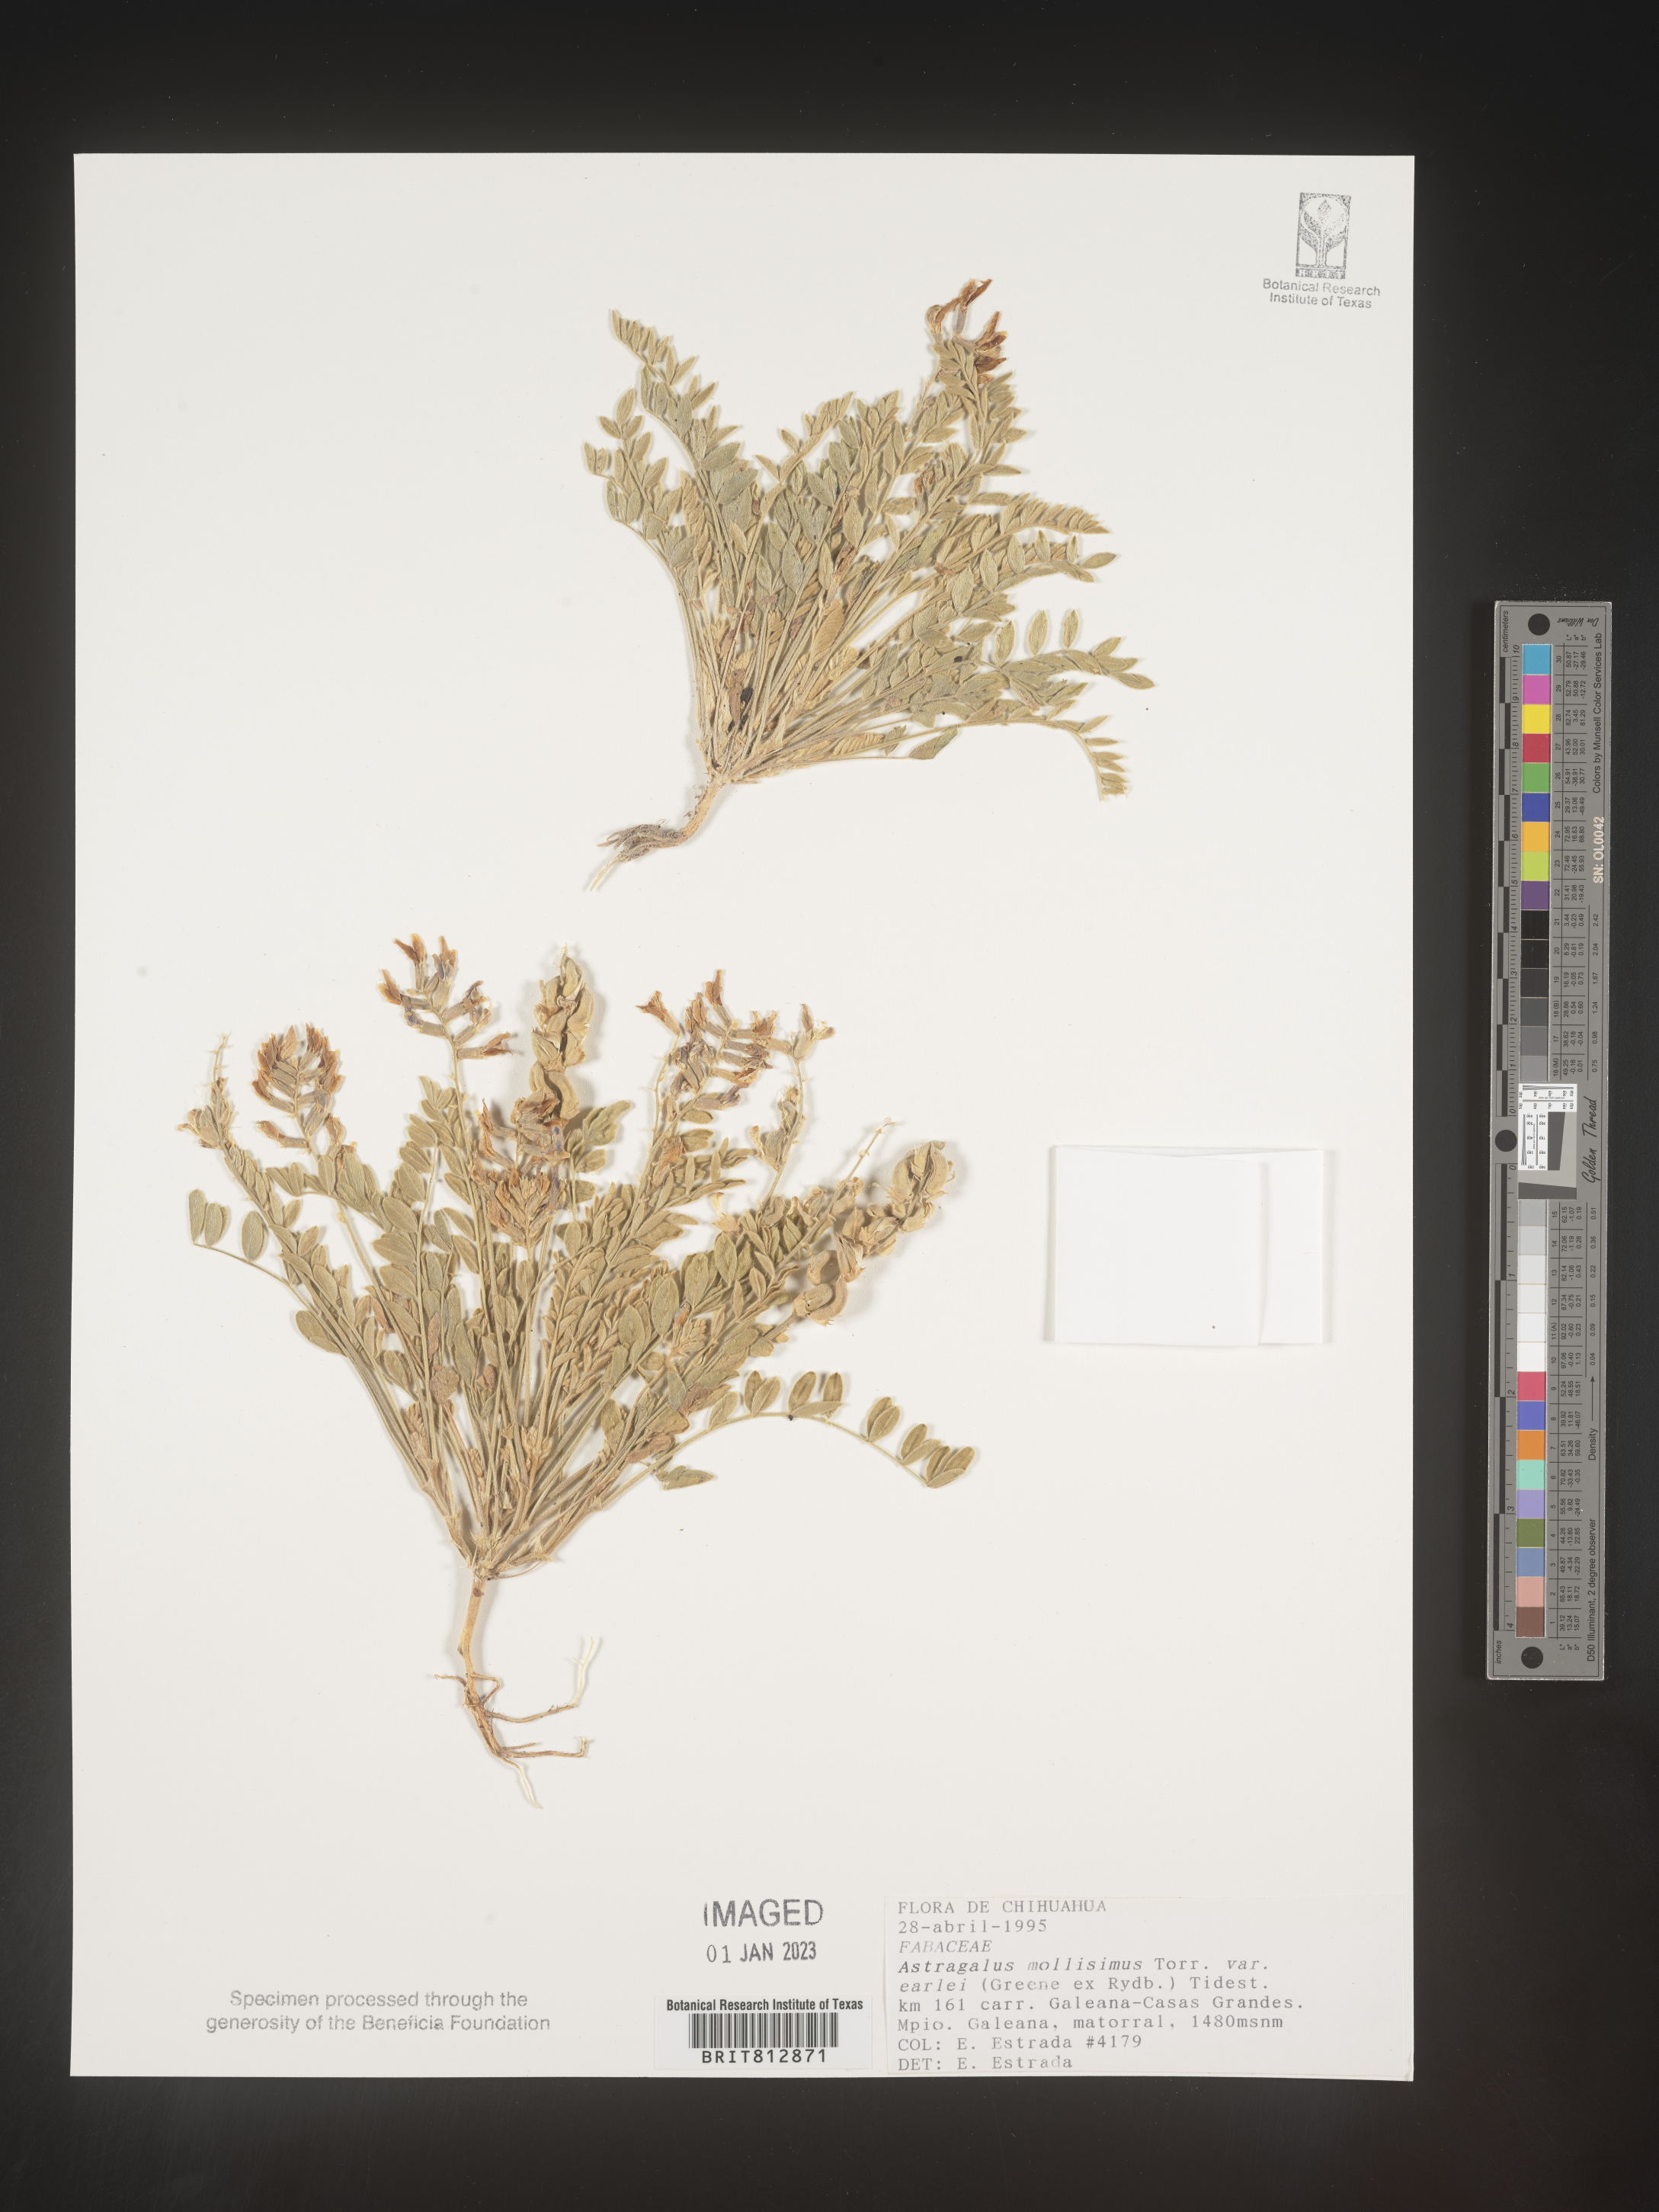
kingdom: Plantae
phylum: Tracheophyta
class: Magnoliopsida
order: Fabales
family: Fabaceae
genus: Astragalus
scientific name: Astragalus
